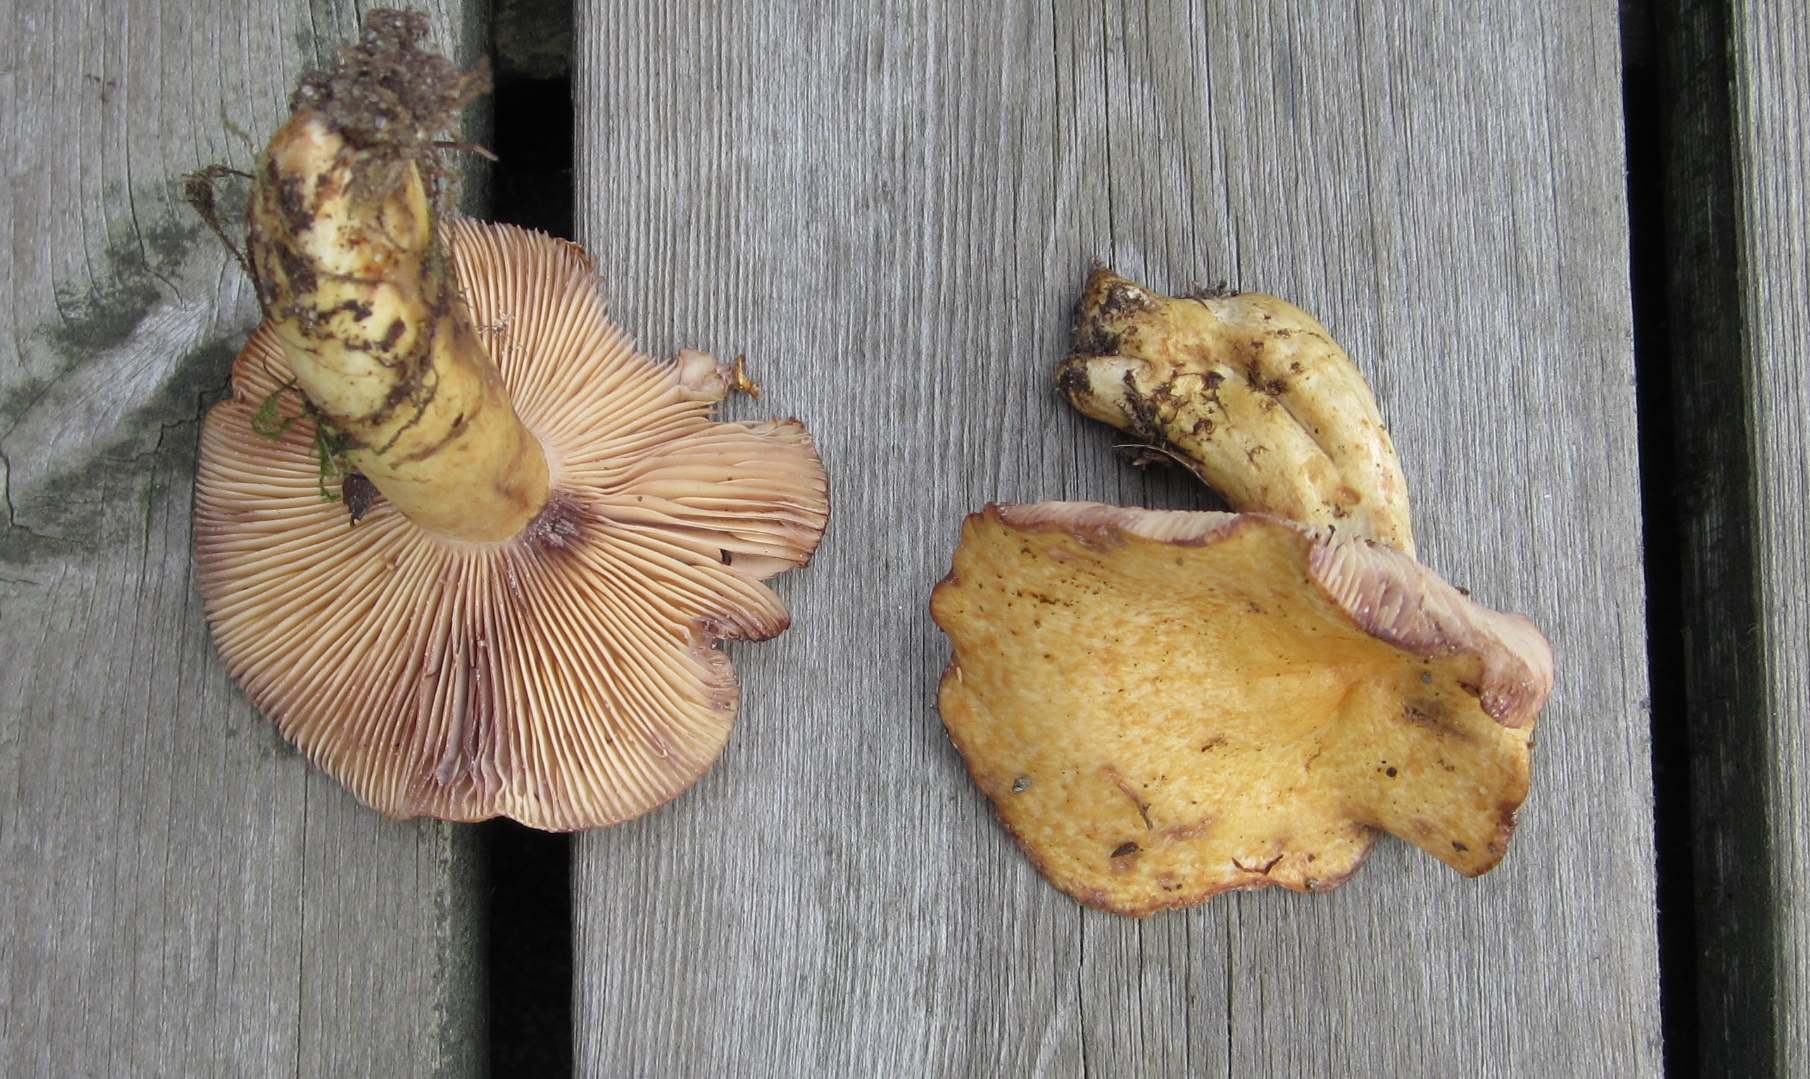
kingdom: Fungi
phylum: Basidiomycota
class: Agaricomycetes
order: Russulales
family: Russulaceae
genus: Lactarius
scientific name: Lactarius repraesentaneus
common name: prægtig mælkehat
